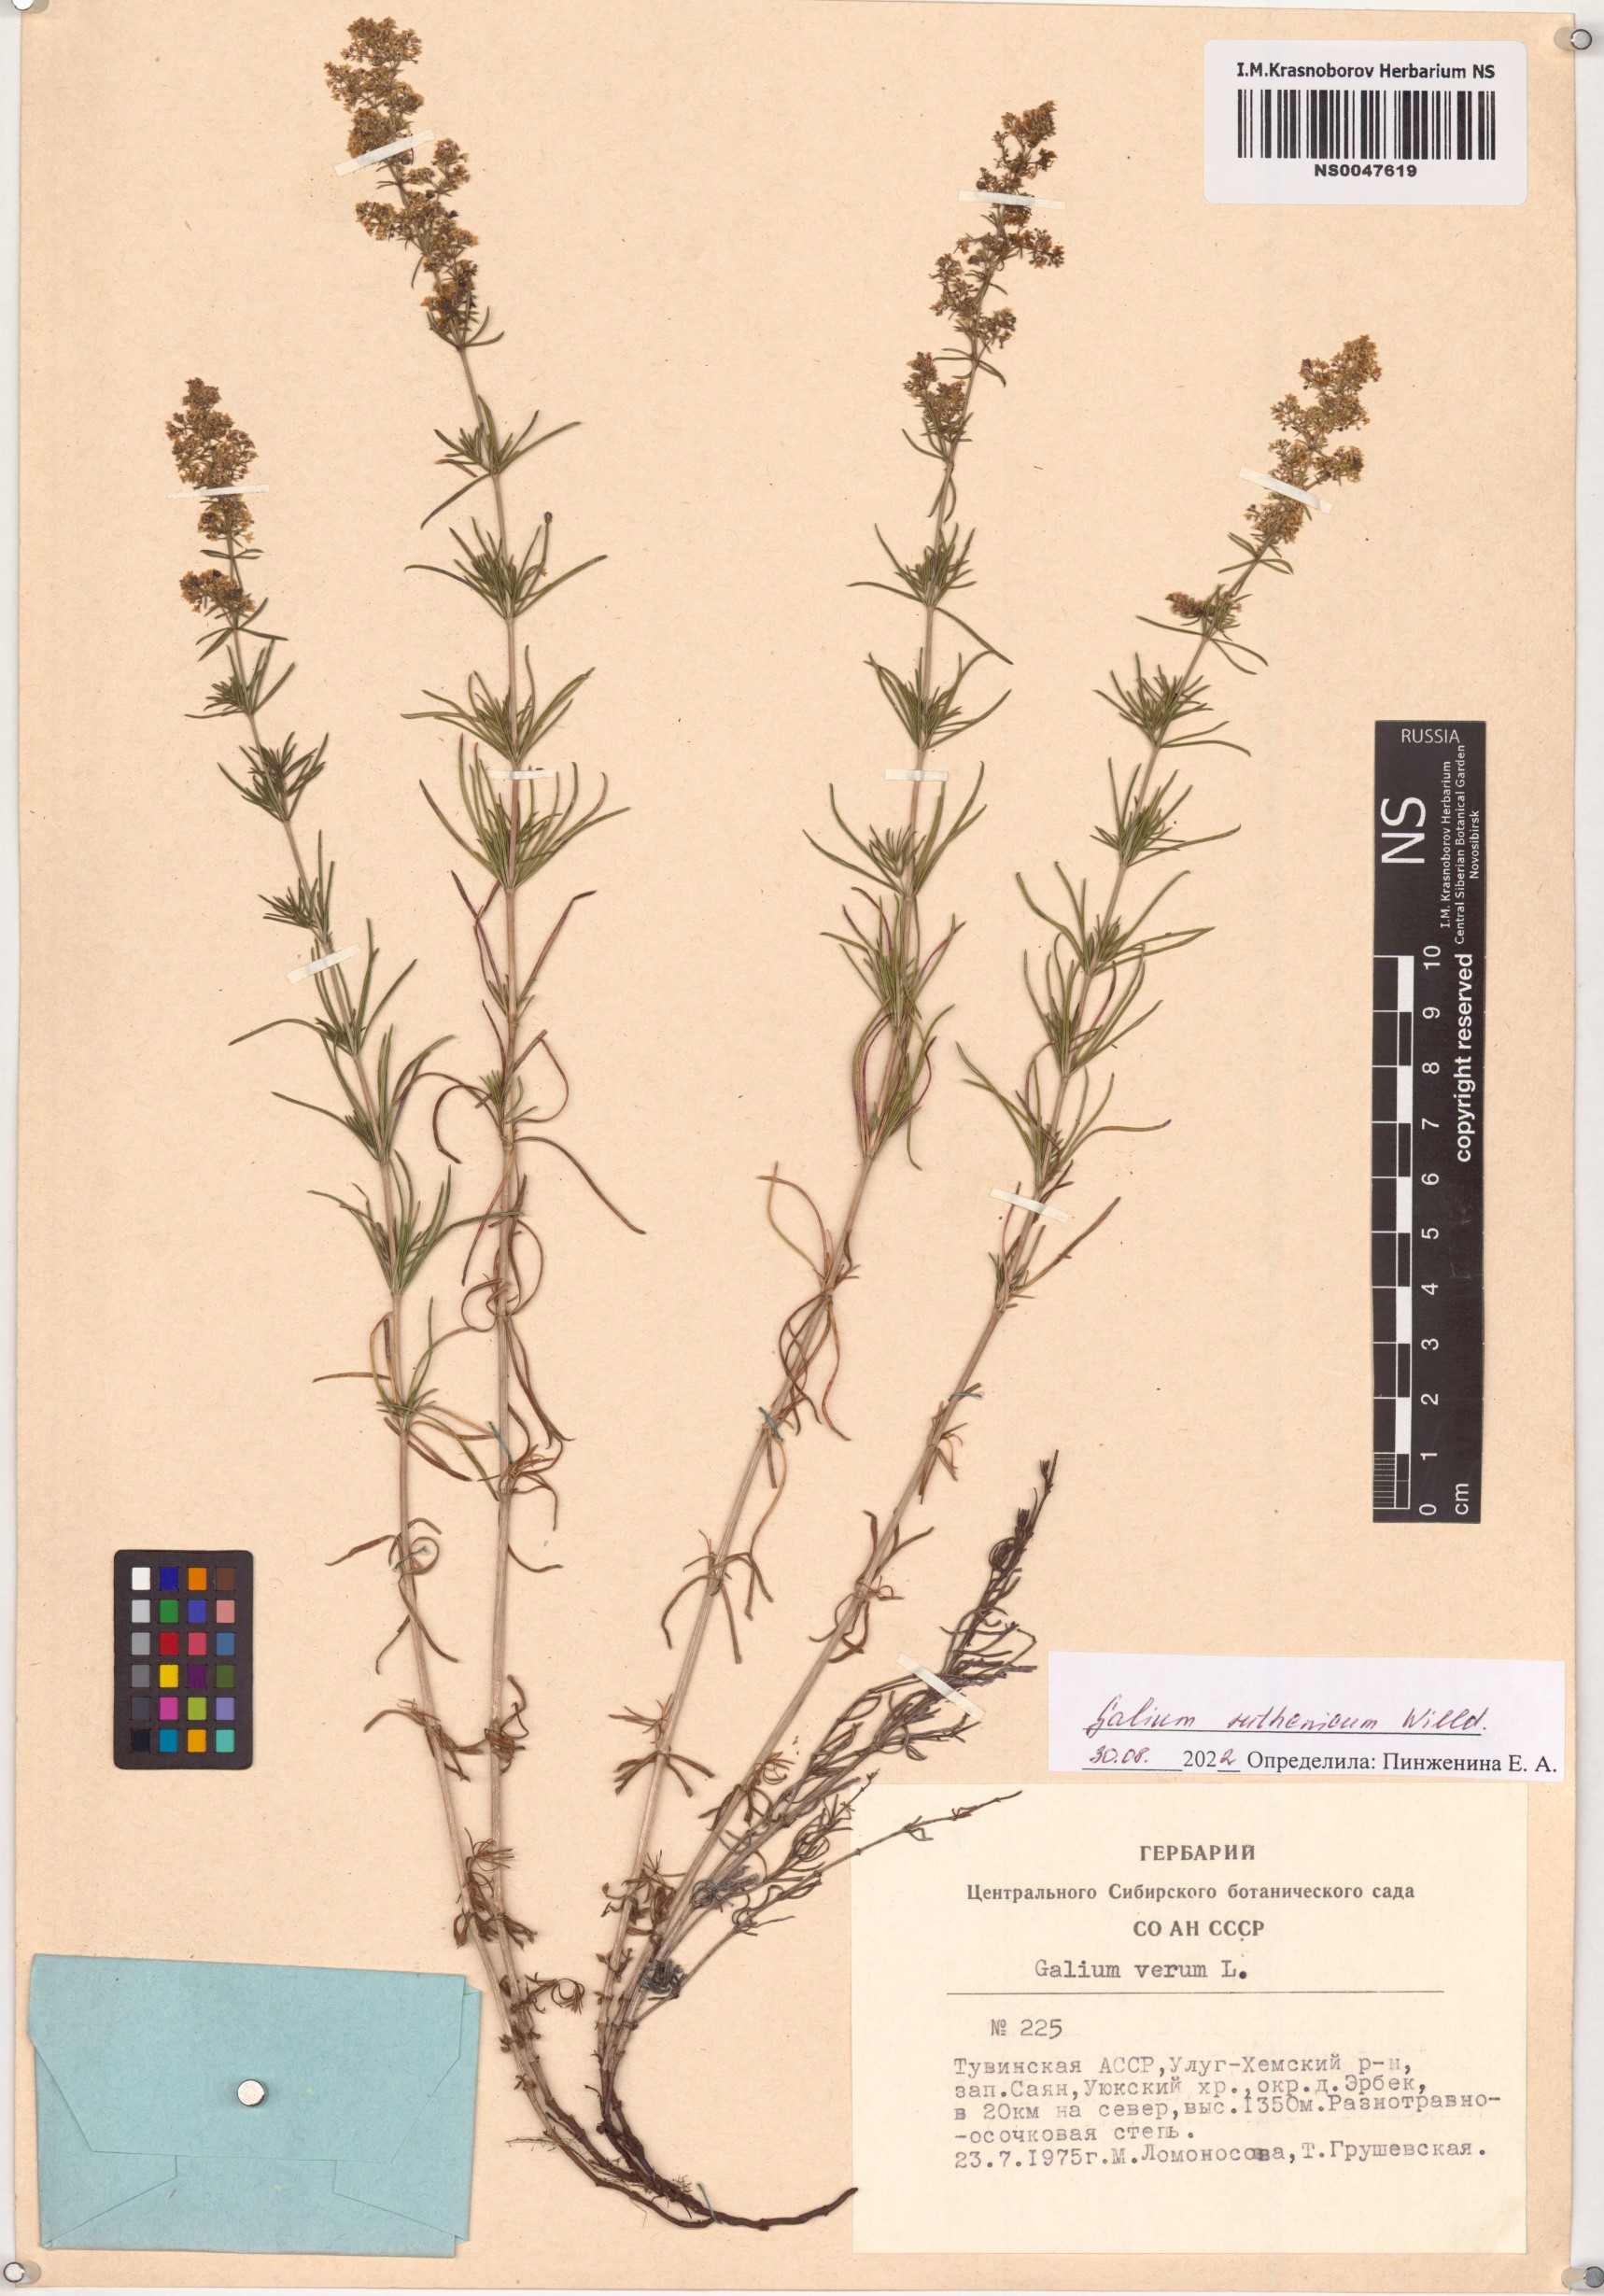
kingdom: Plantae
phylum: Tracheophyta
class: Magnoliopsida
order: Gentianales
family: Rubiaceae
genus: Galium
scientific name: Galium verum
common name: Lady's bedstraw
